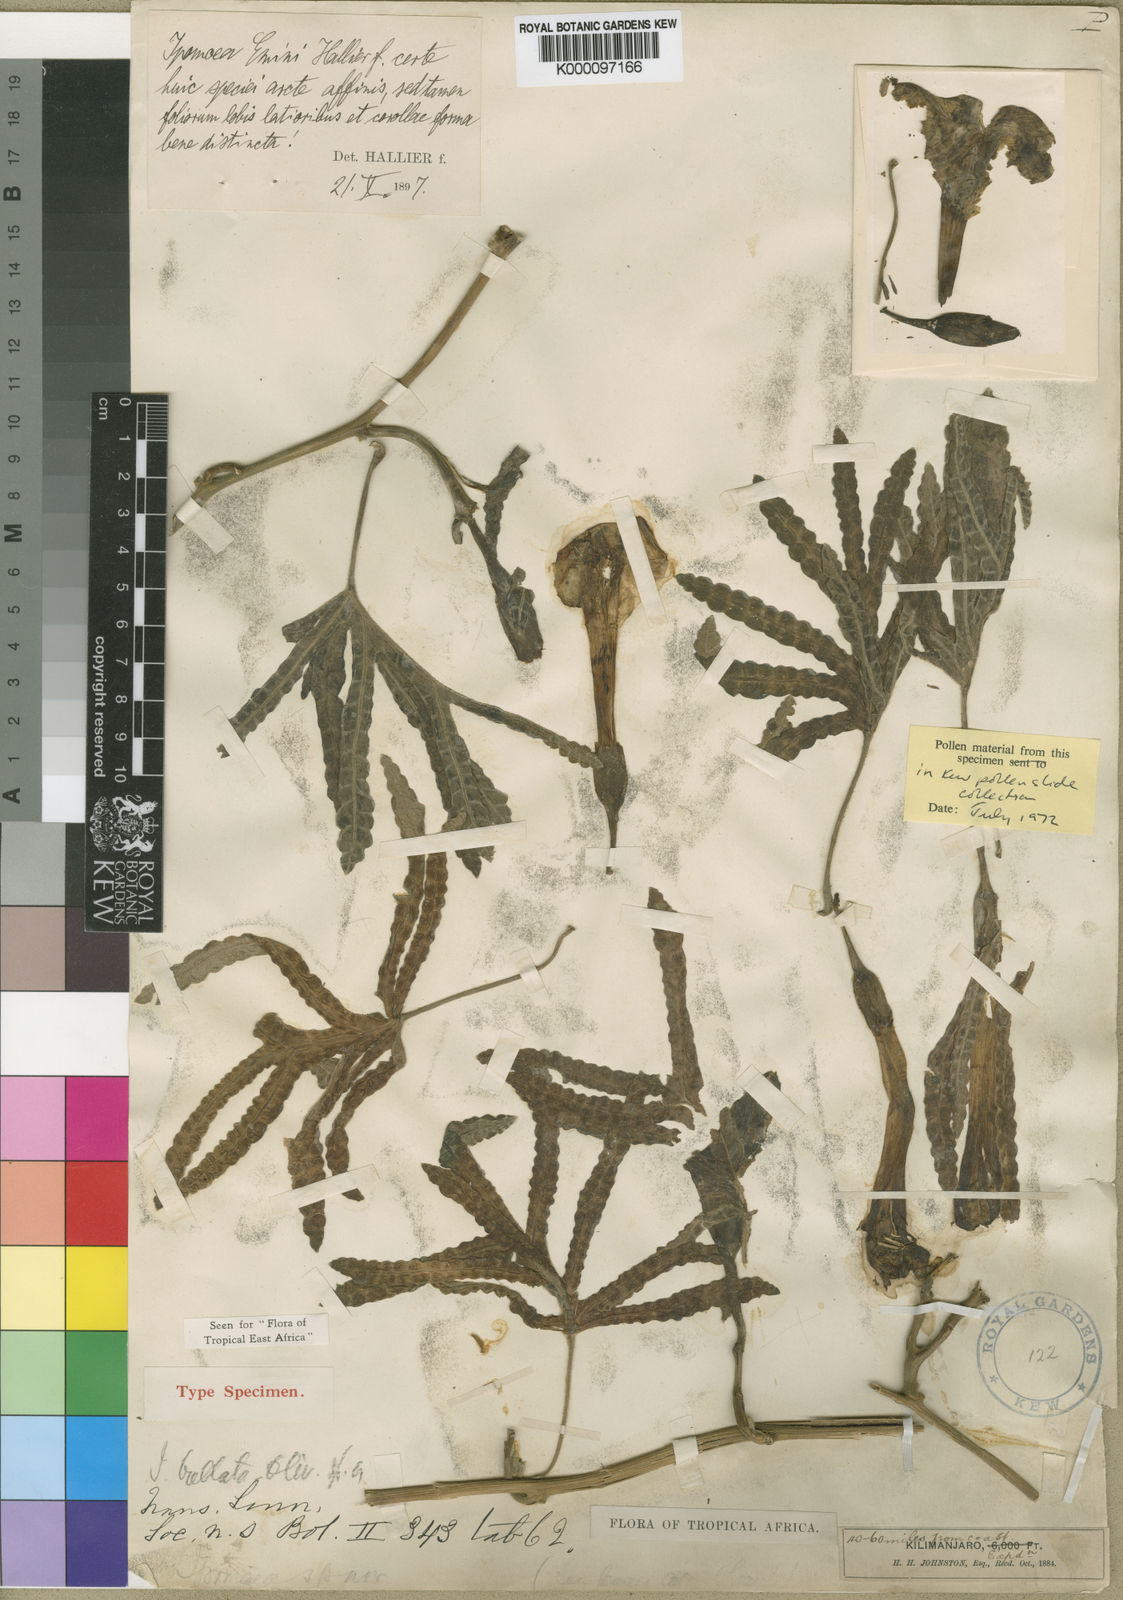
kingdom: Plantae
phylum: Tracheophyta
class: Magnoliopsida
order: Solanales
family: Convolvulaceae
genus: Ipomoea
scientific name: Ipomoea bullata
